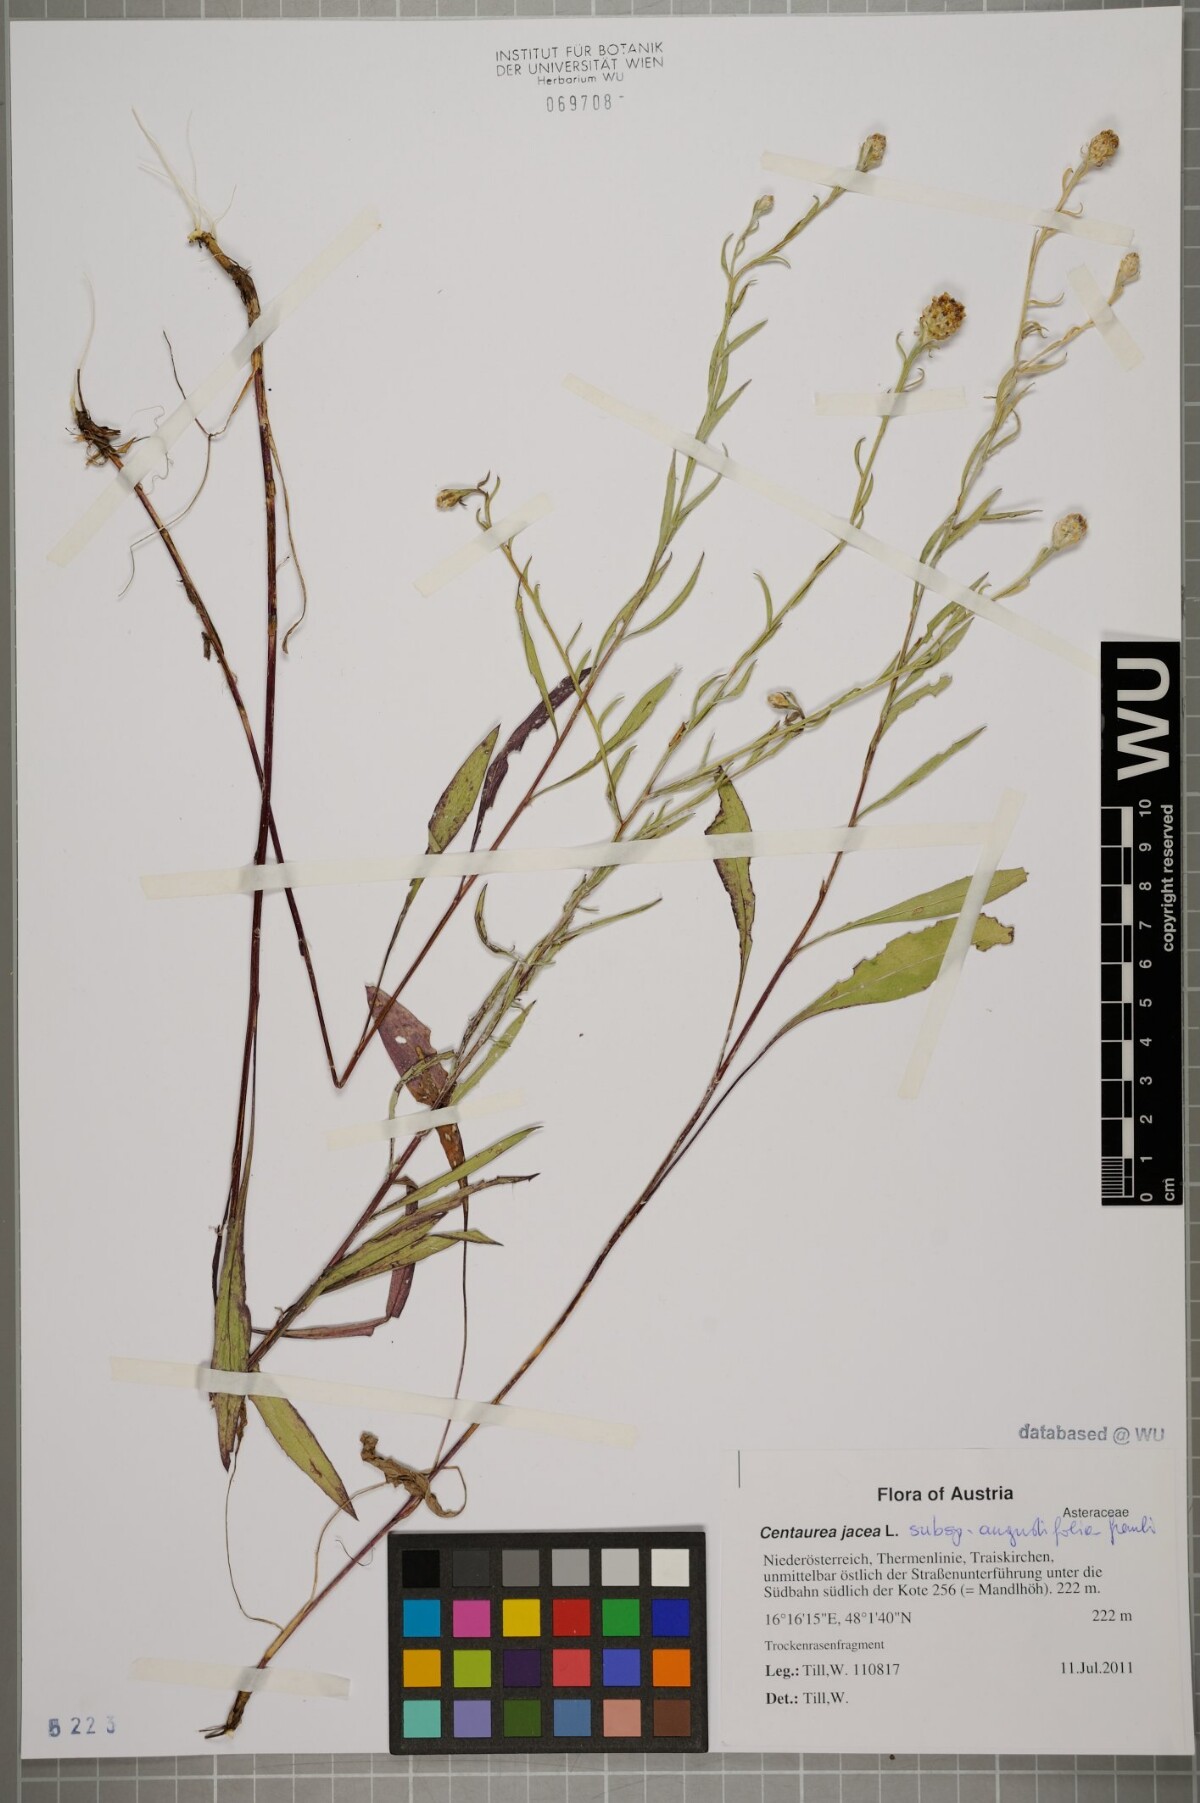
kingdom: Plantae
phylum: Tracheophyta
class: Magnoliopsida
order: Asterales
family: Asteraceae
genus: Centaurea
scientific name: Centaurea pannonica
